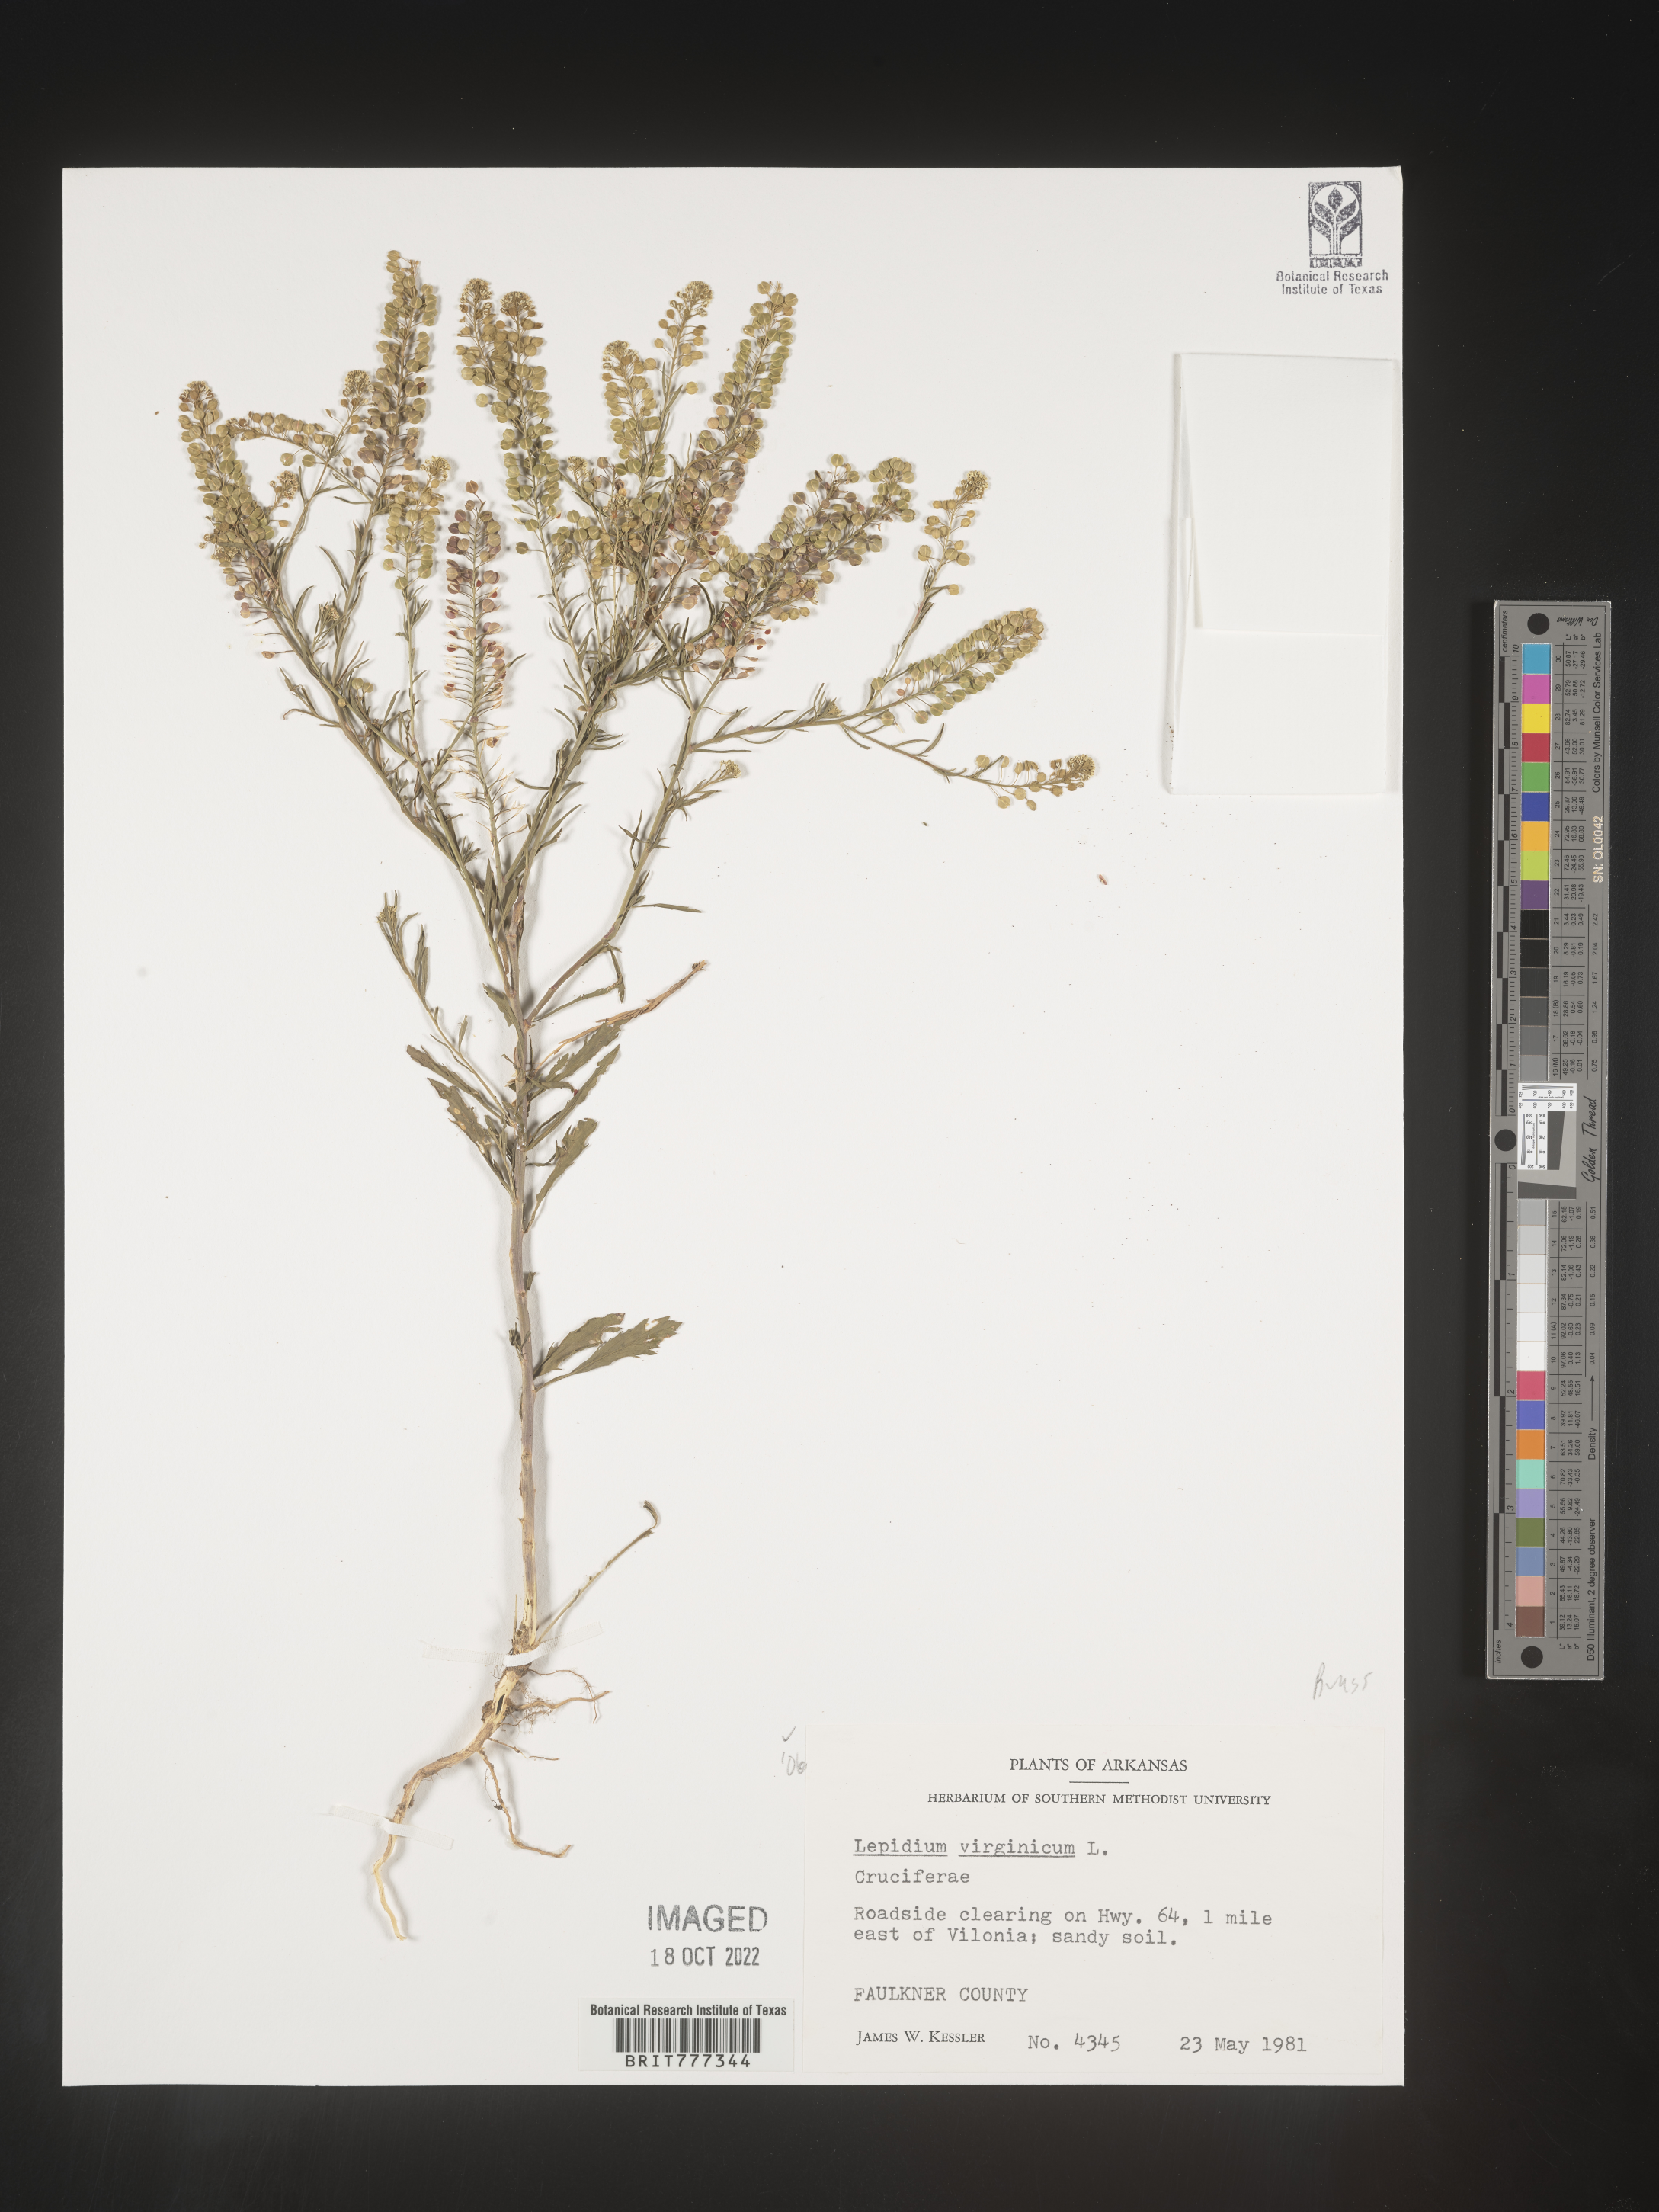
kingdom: Plantae
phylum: Tracheophyta
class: Magnoliopsida
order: Brassicales
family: Brassicaceae
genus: Lepidium
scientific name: Lepidium virginicum
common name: Least pepperwort
